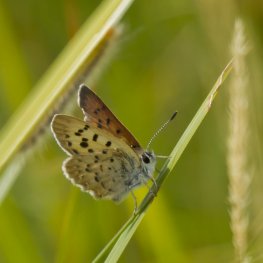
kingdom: Animalia
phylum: Arthropoda
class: Insecta
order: Lepidoptera
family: Lycaenidae
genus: Epidemia
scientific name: Epidemia dorcas
